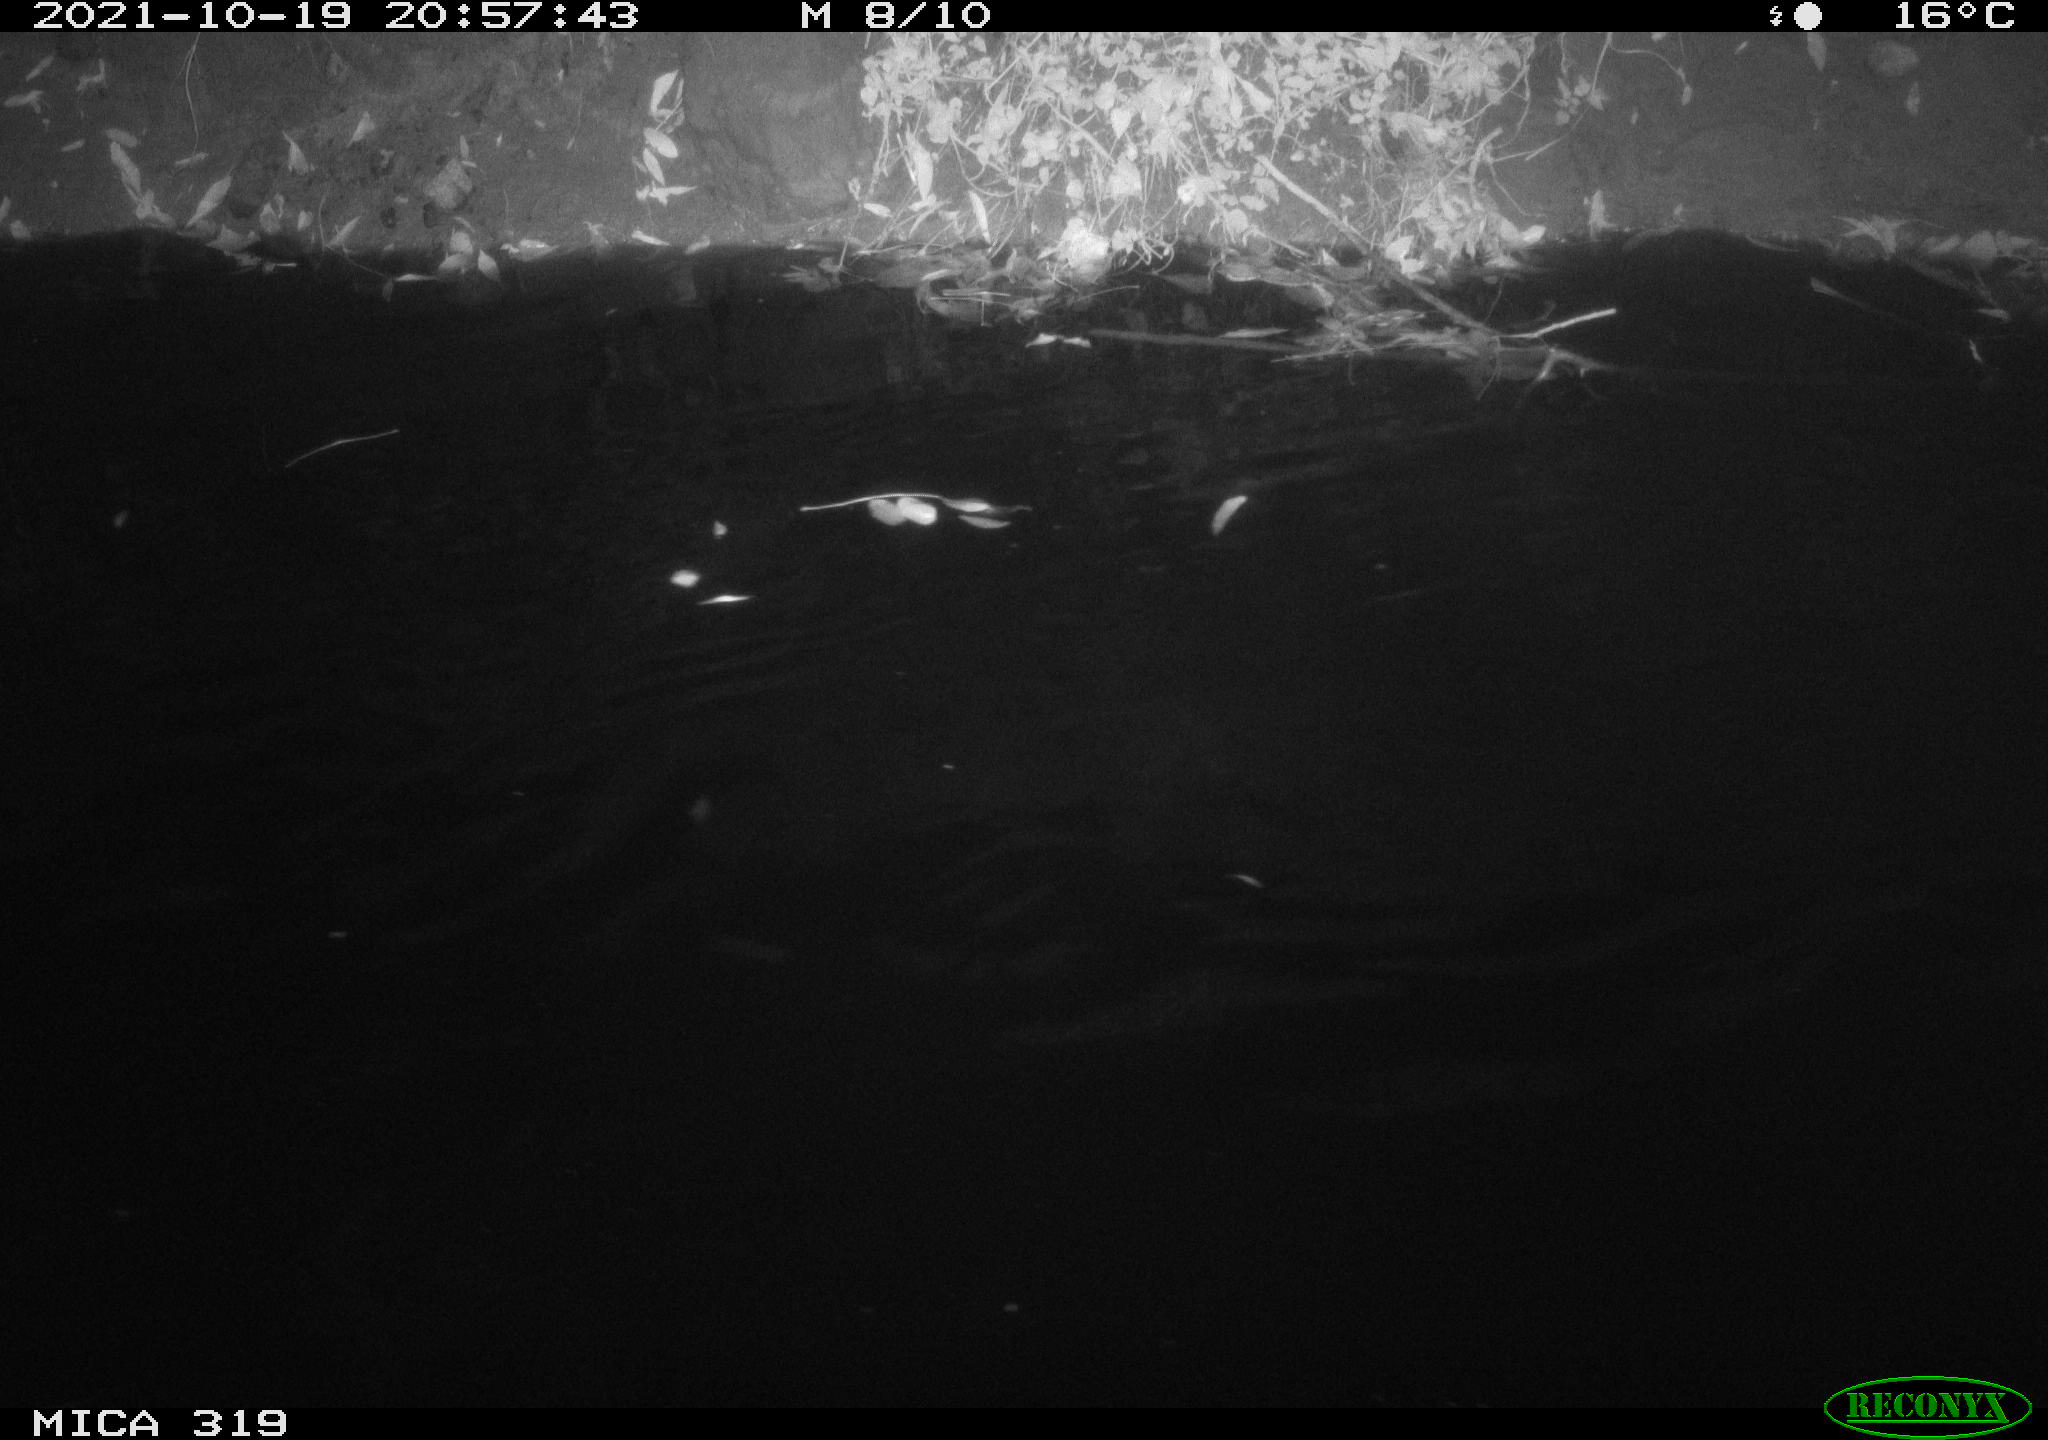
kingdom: Animalia
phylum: Chordata
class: Aves
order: Anseriformes
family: Anatidae
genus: Anas
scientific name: Anas platyrhynchos
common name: Mallard
